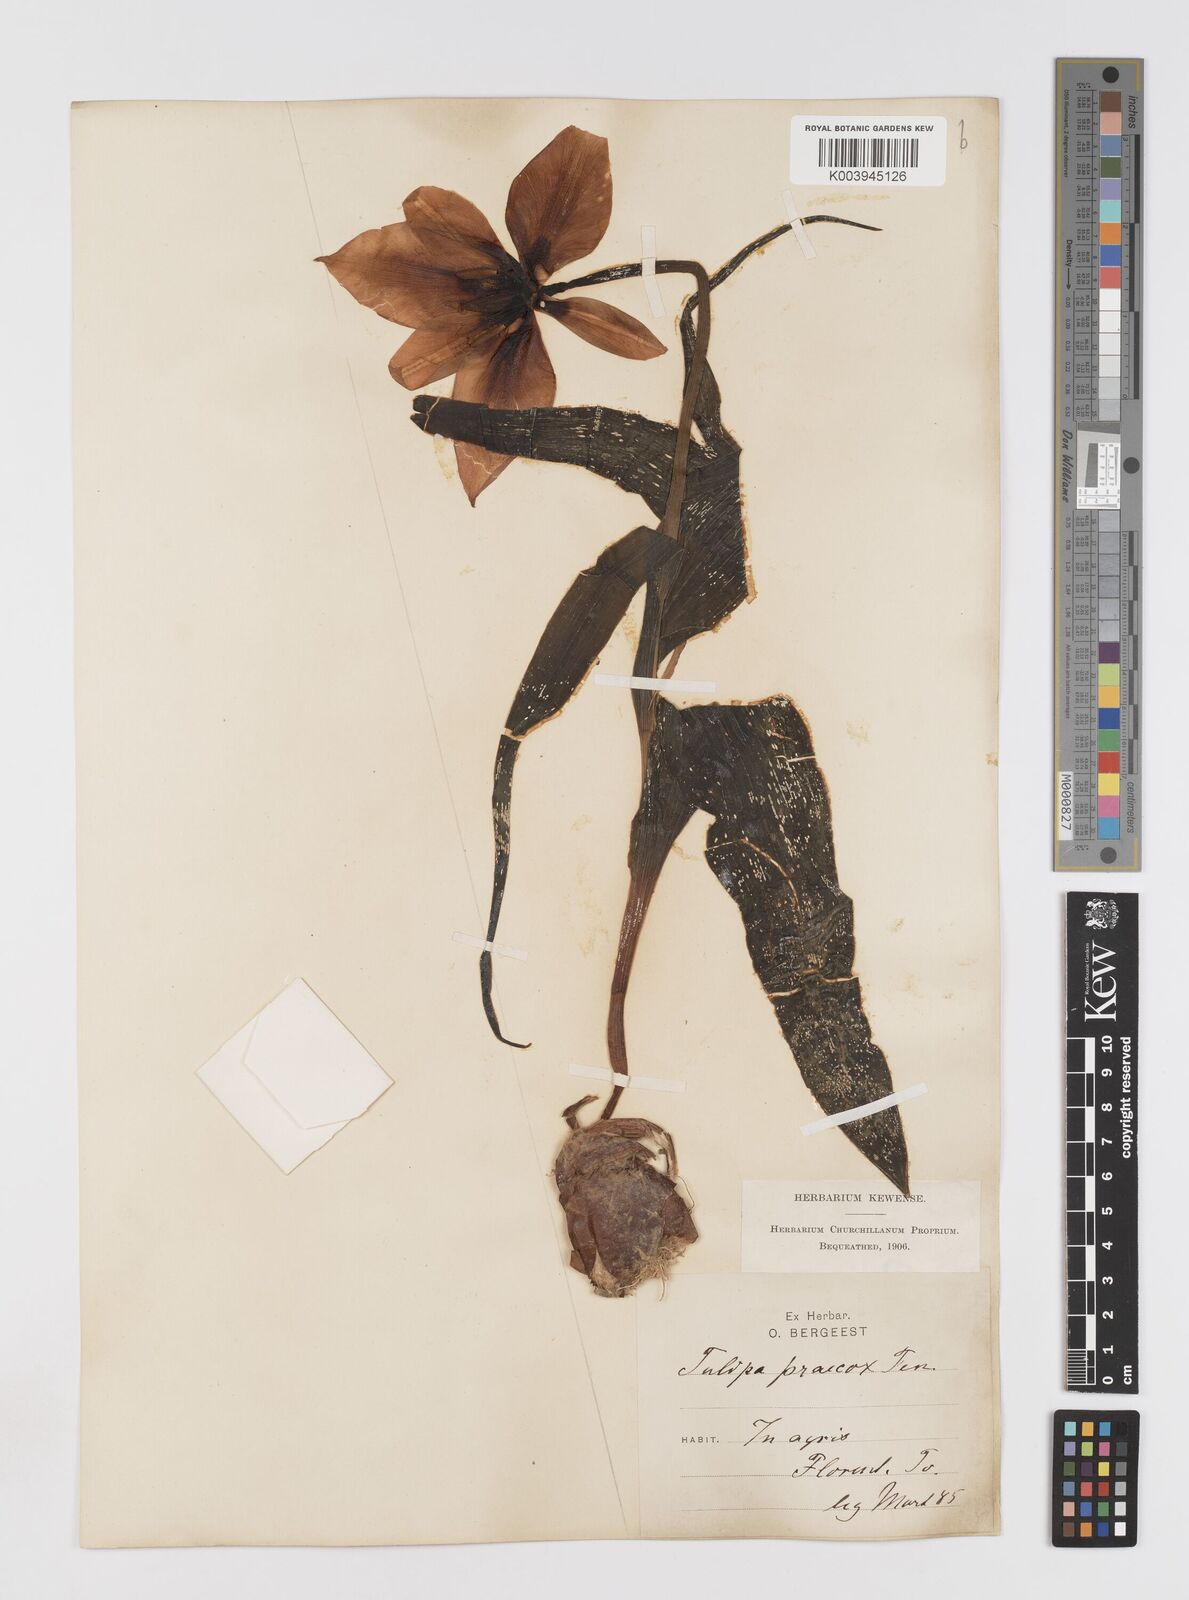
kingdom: Plantae
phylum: Tracheophyta
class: Liliopsida
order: Liliales
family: Liliaceae
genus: Tulipa
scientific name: Tulipa
